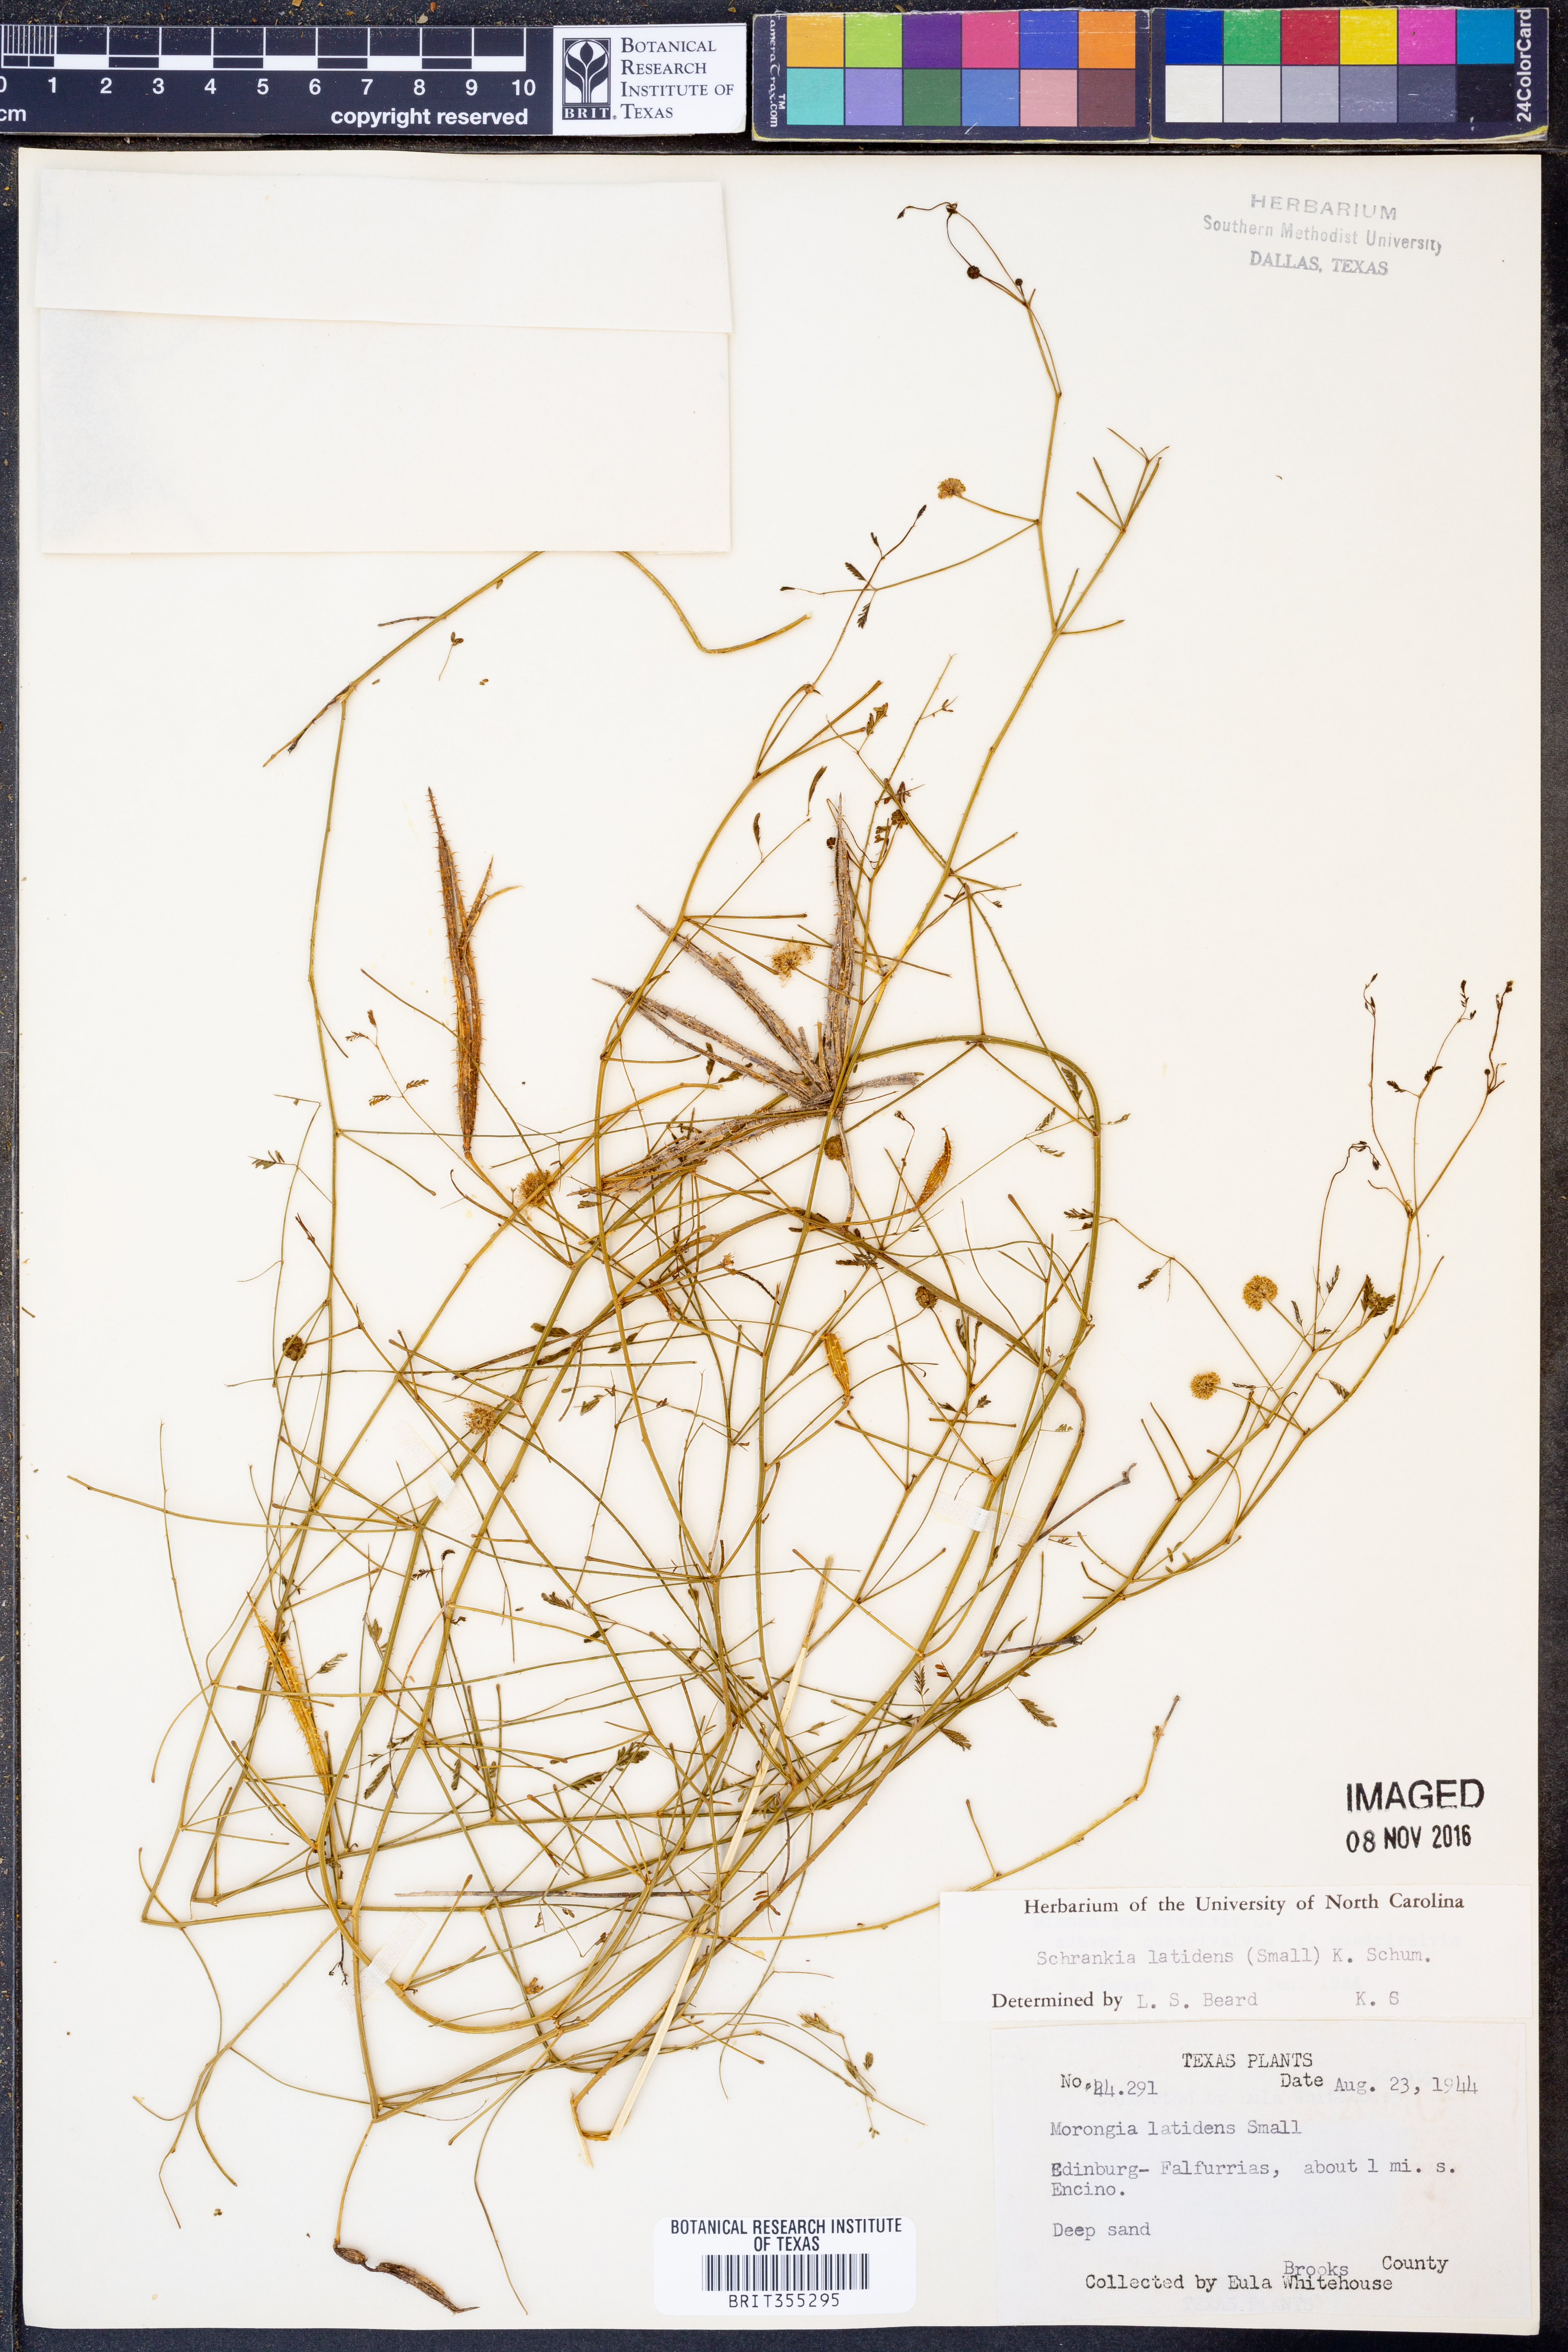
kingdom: Plantae
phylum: Tracheophyta
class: Magnoliopsida
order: Fabales
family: Fabaceae
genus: Mimosa
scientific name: Mimosa quadrivalvis
